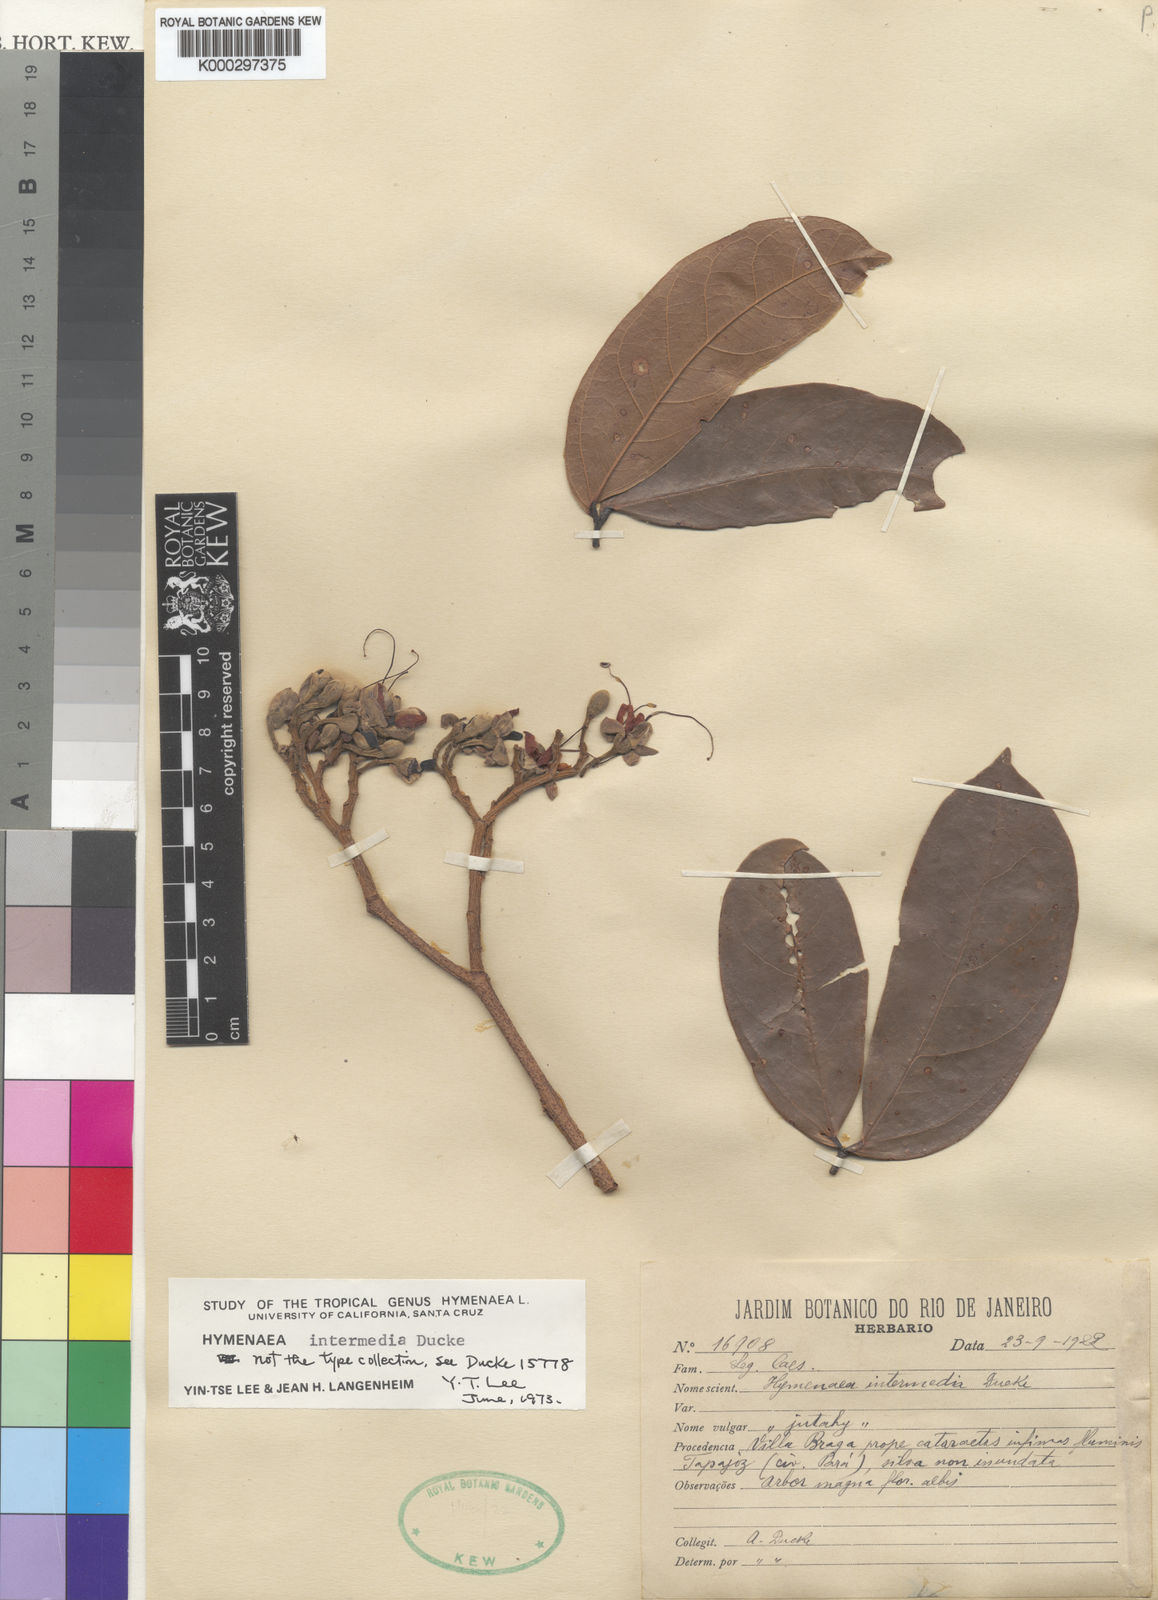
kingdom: Plantae
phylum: Tracheophyta
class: Magnoliopsida
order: Fabales
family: Fabaceae
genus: Hymenaea
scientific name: Hymenaea intermedia
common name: South american copal
